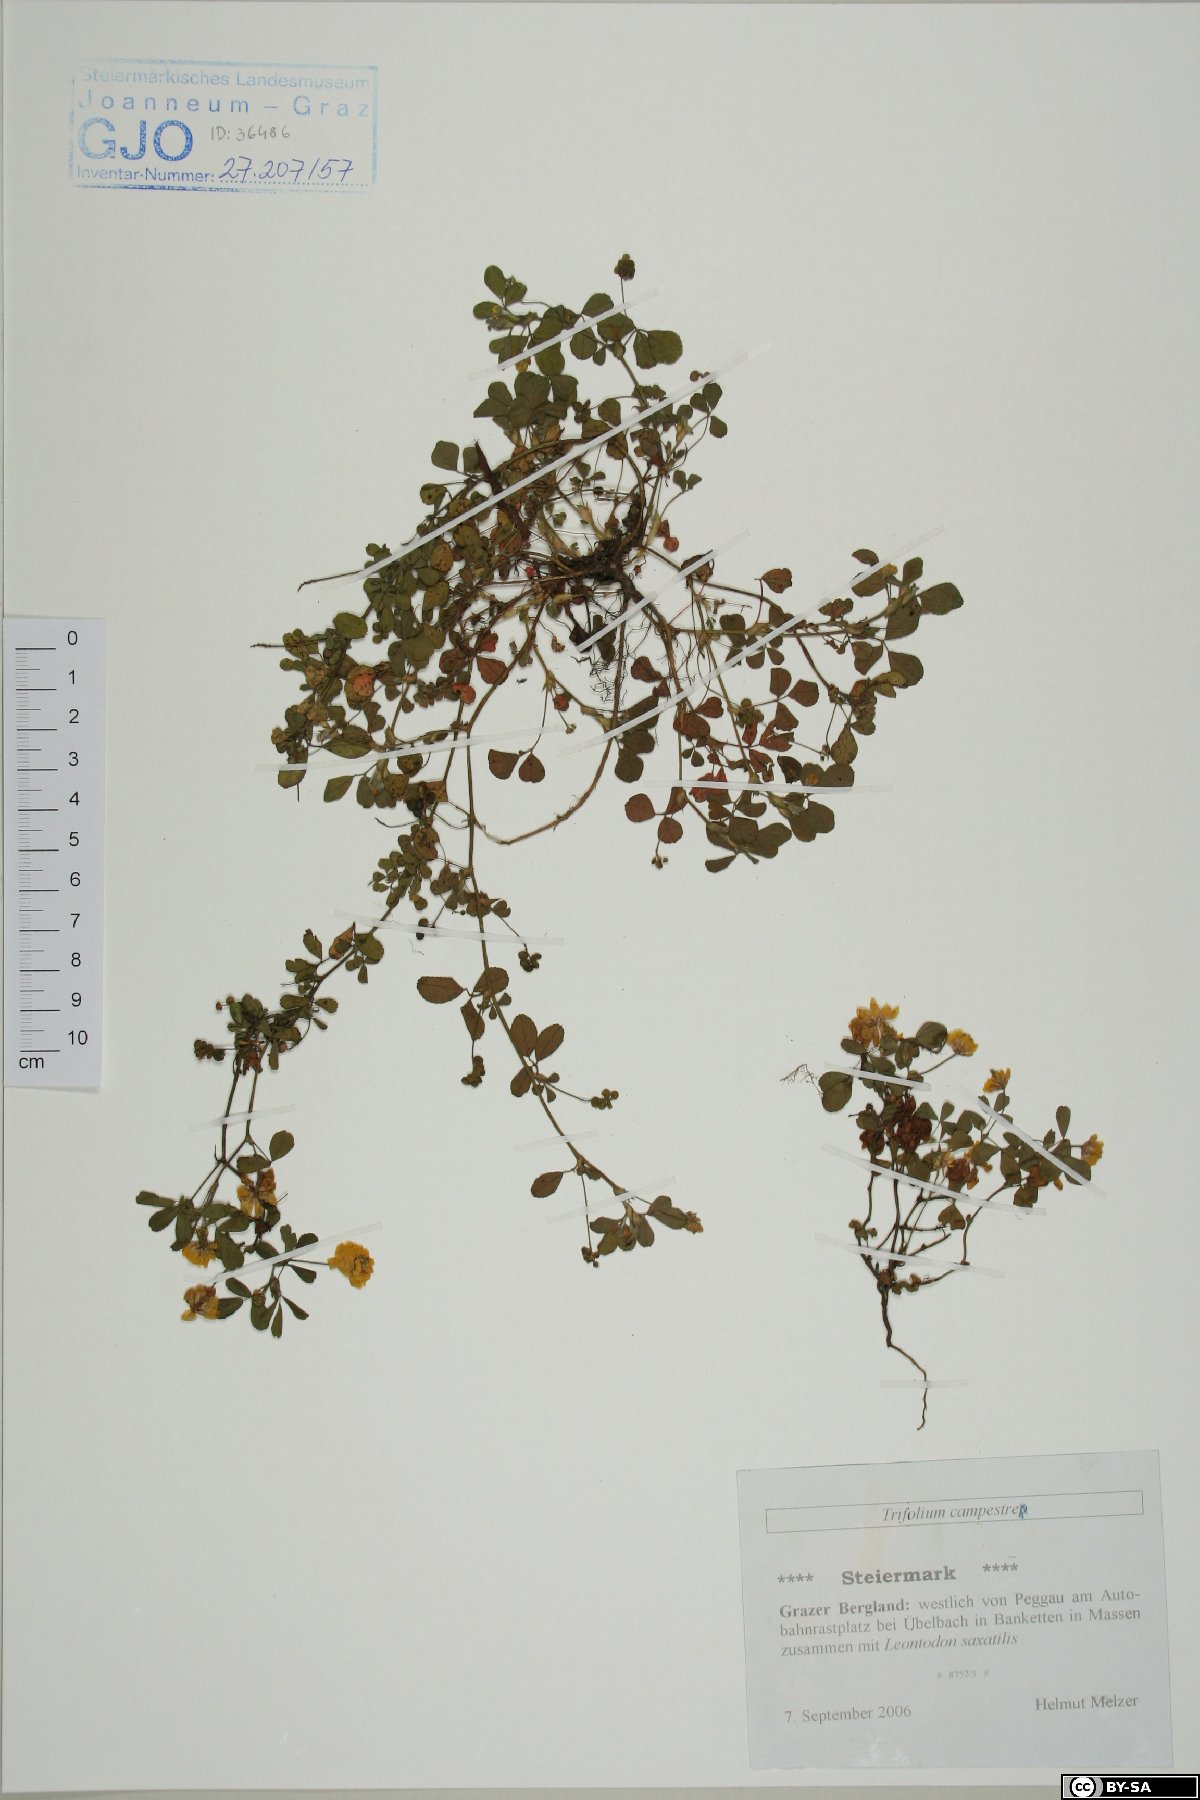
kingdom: Plantae
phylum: Tracheophyta
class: Magnoliopsida
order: Fabales
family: Fabaceae
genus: Trifolium
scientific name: Trifolium campestre
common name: Field clover
